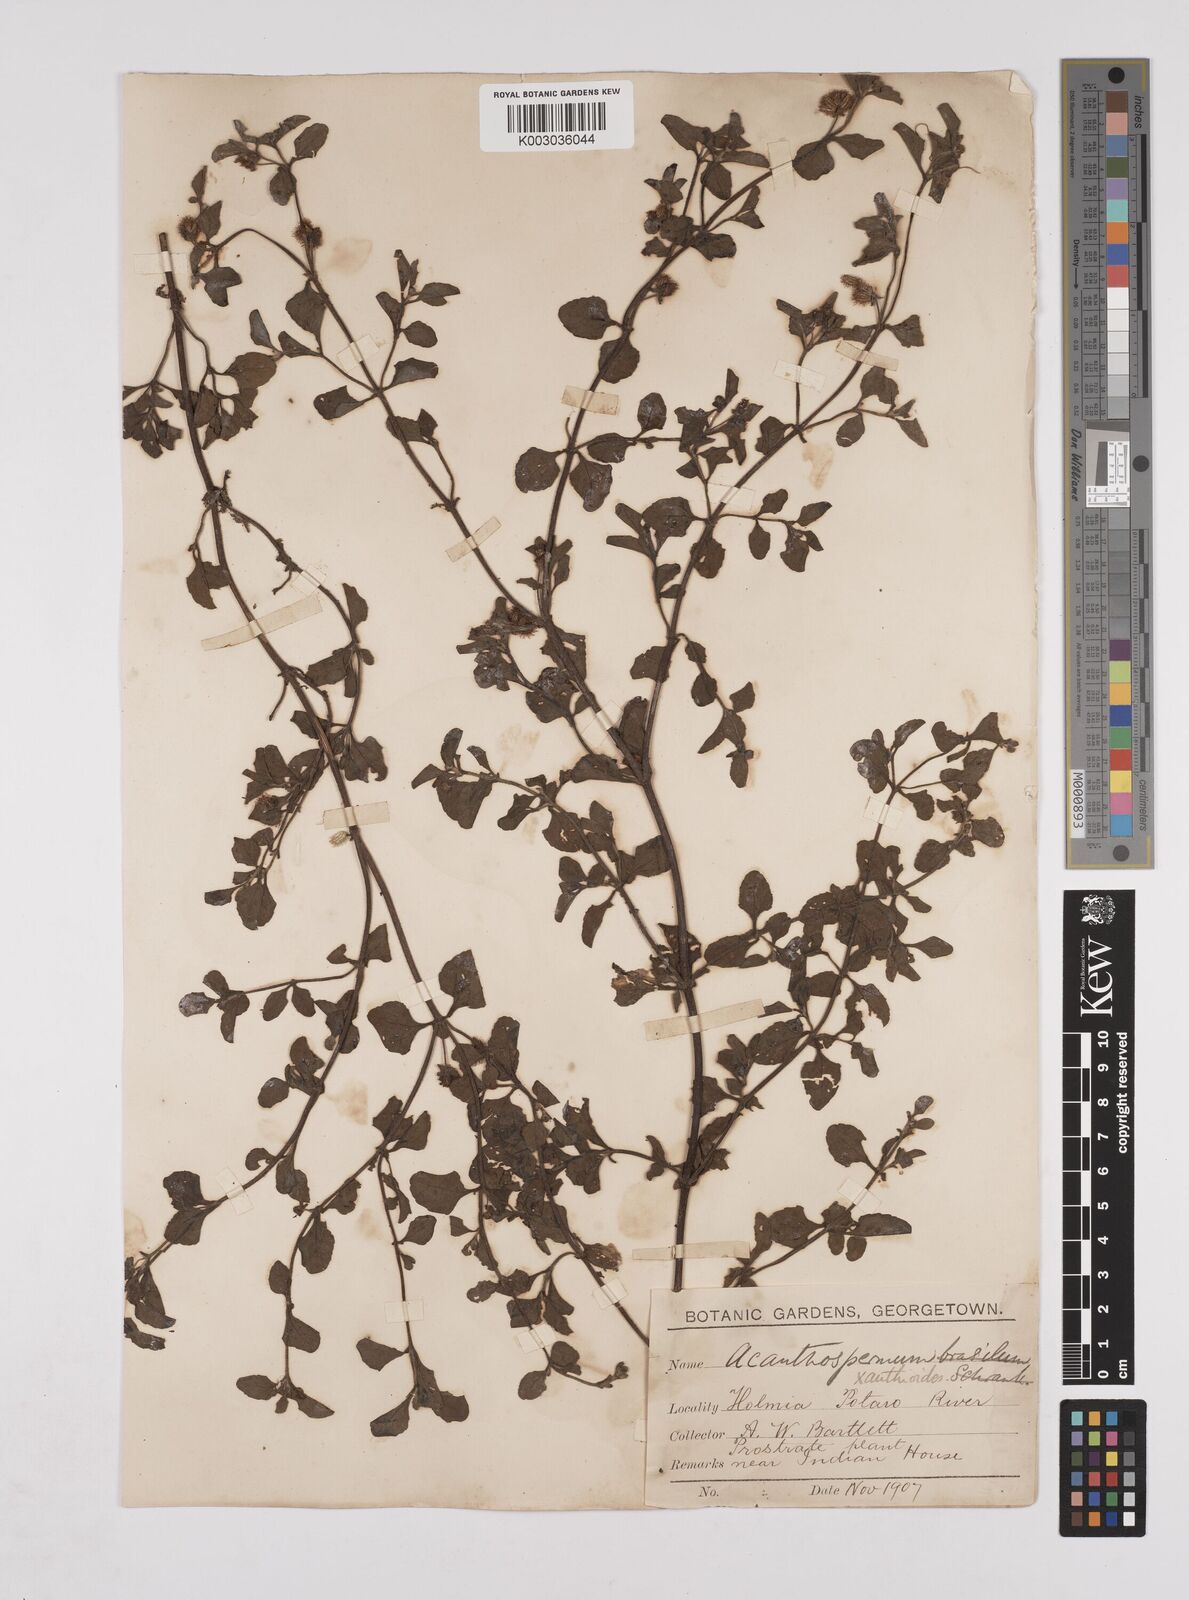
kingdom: Plantae
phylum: Tracheophyta
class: Magnoliopsida
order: Asterales
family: Asteraceae
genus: Acanthospermum
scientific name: Acanthospermum australe
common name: Paraguayan starbur
